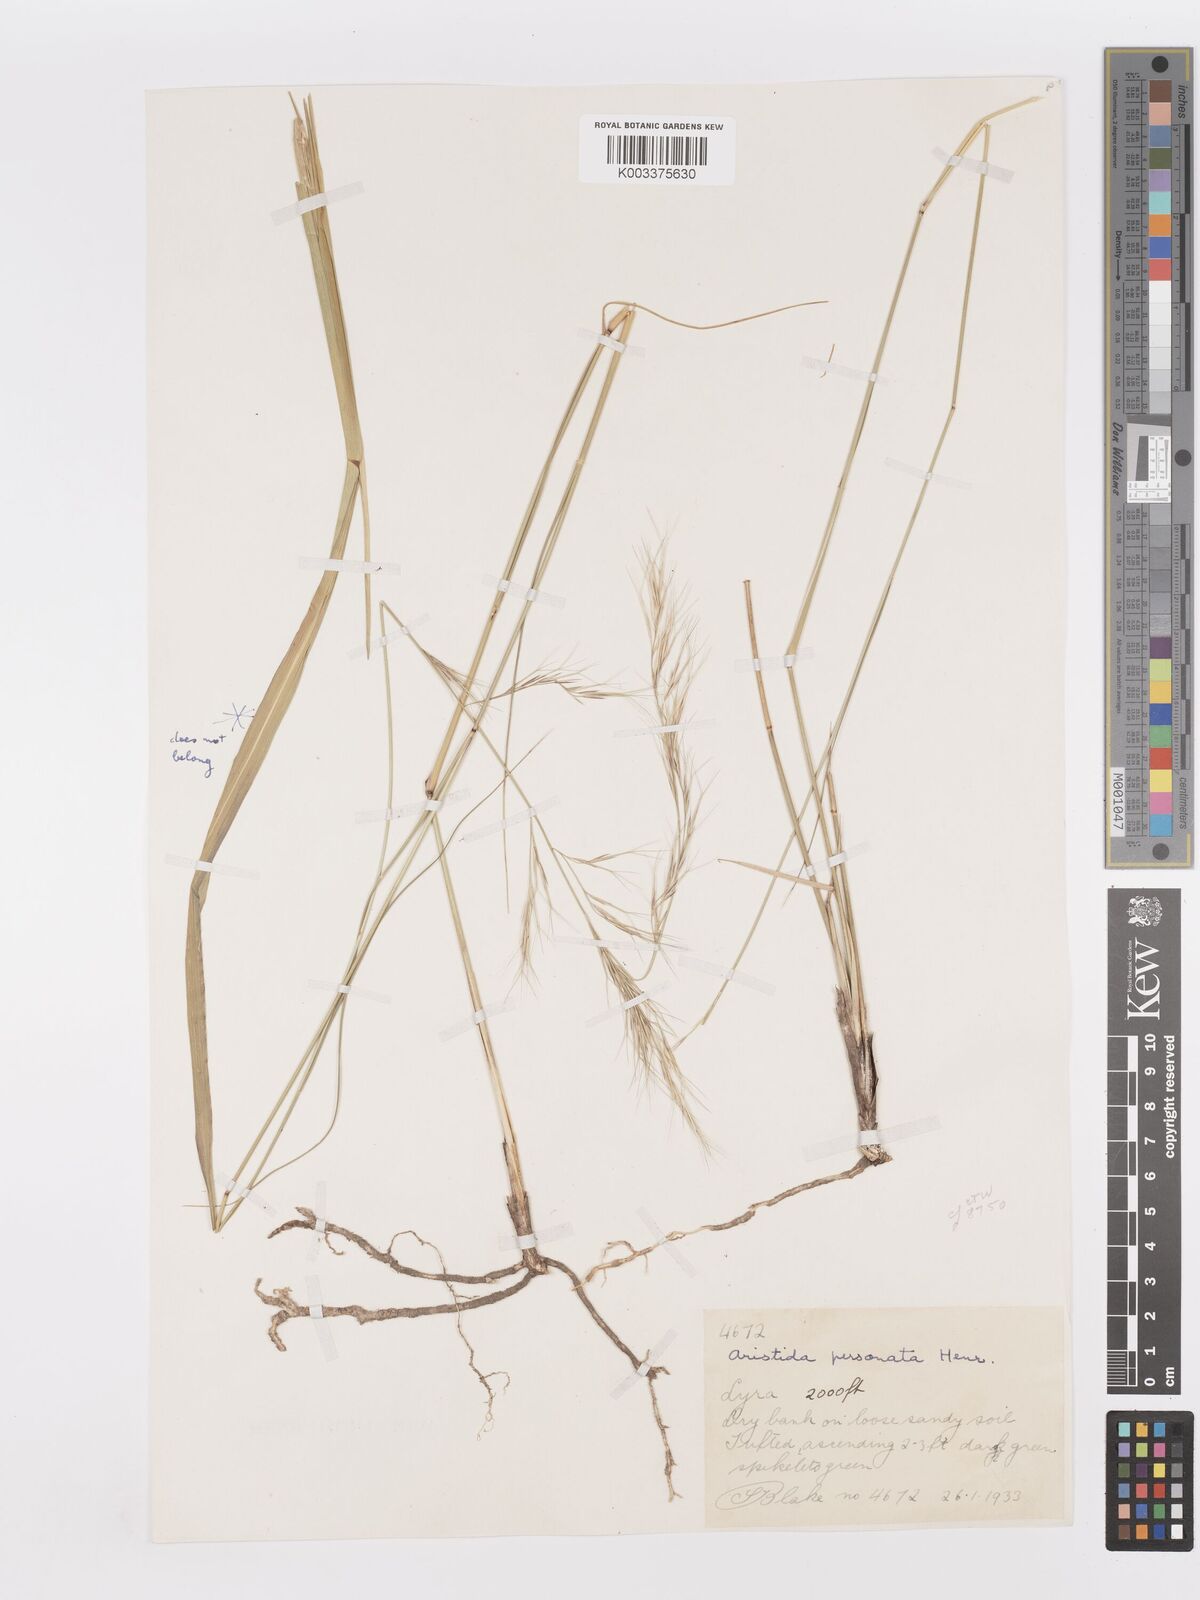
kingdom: Plantae
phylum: Tracheophyta
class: Liliopsida
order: Poales
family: Poaceae
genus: Aristida
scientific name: Aristida personata
